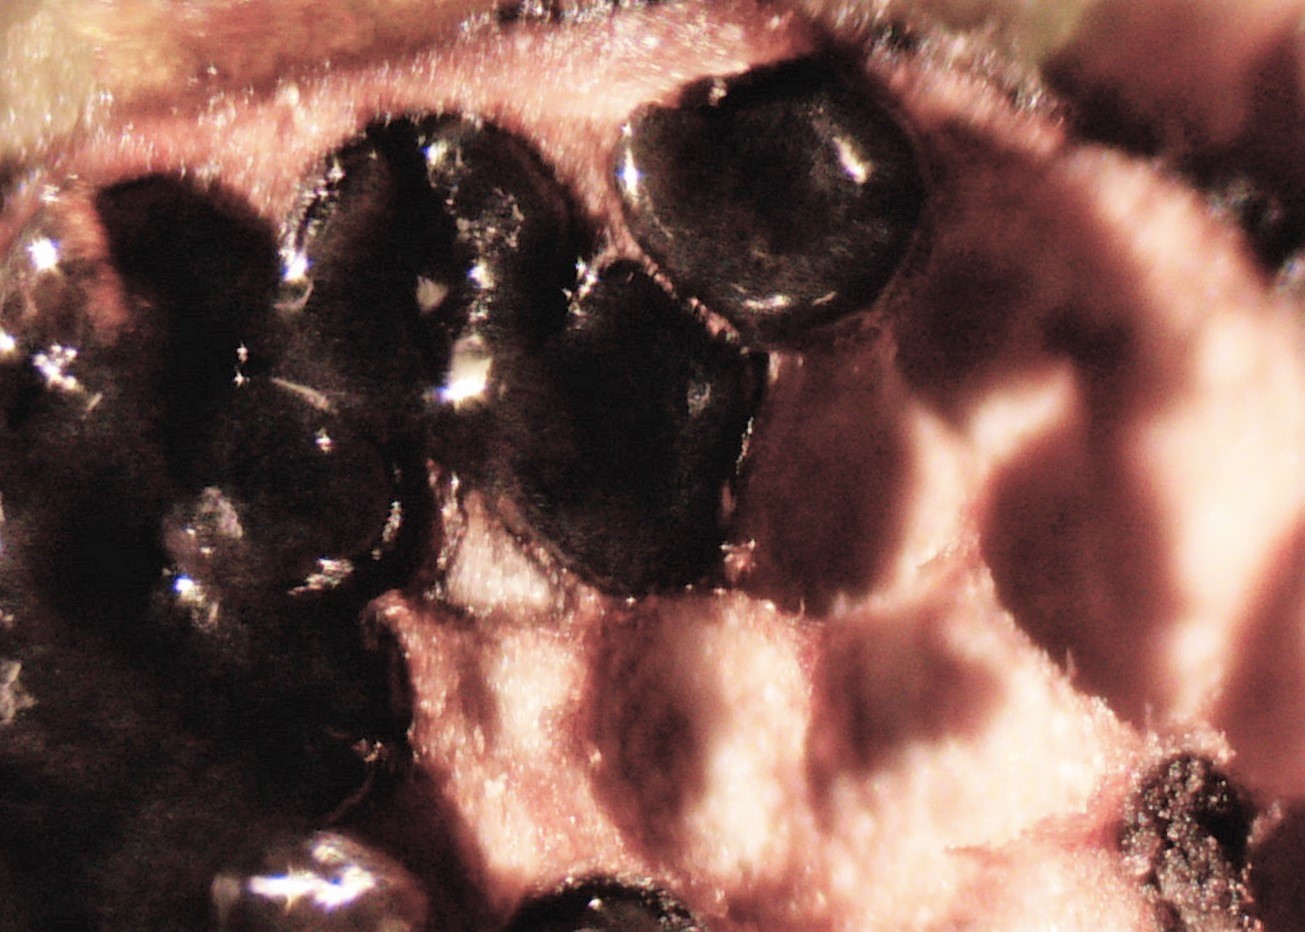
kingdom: Fungi
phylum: Ascomycota
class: Sordariomycetes
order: Xylariales
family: Diatrypaceae
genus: Diatrype
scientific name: Diatrype bullata
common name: pile-kulskorpe
